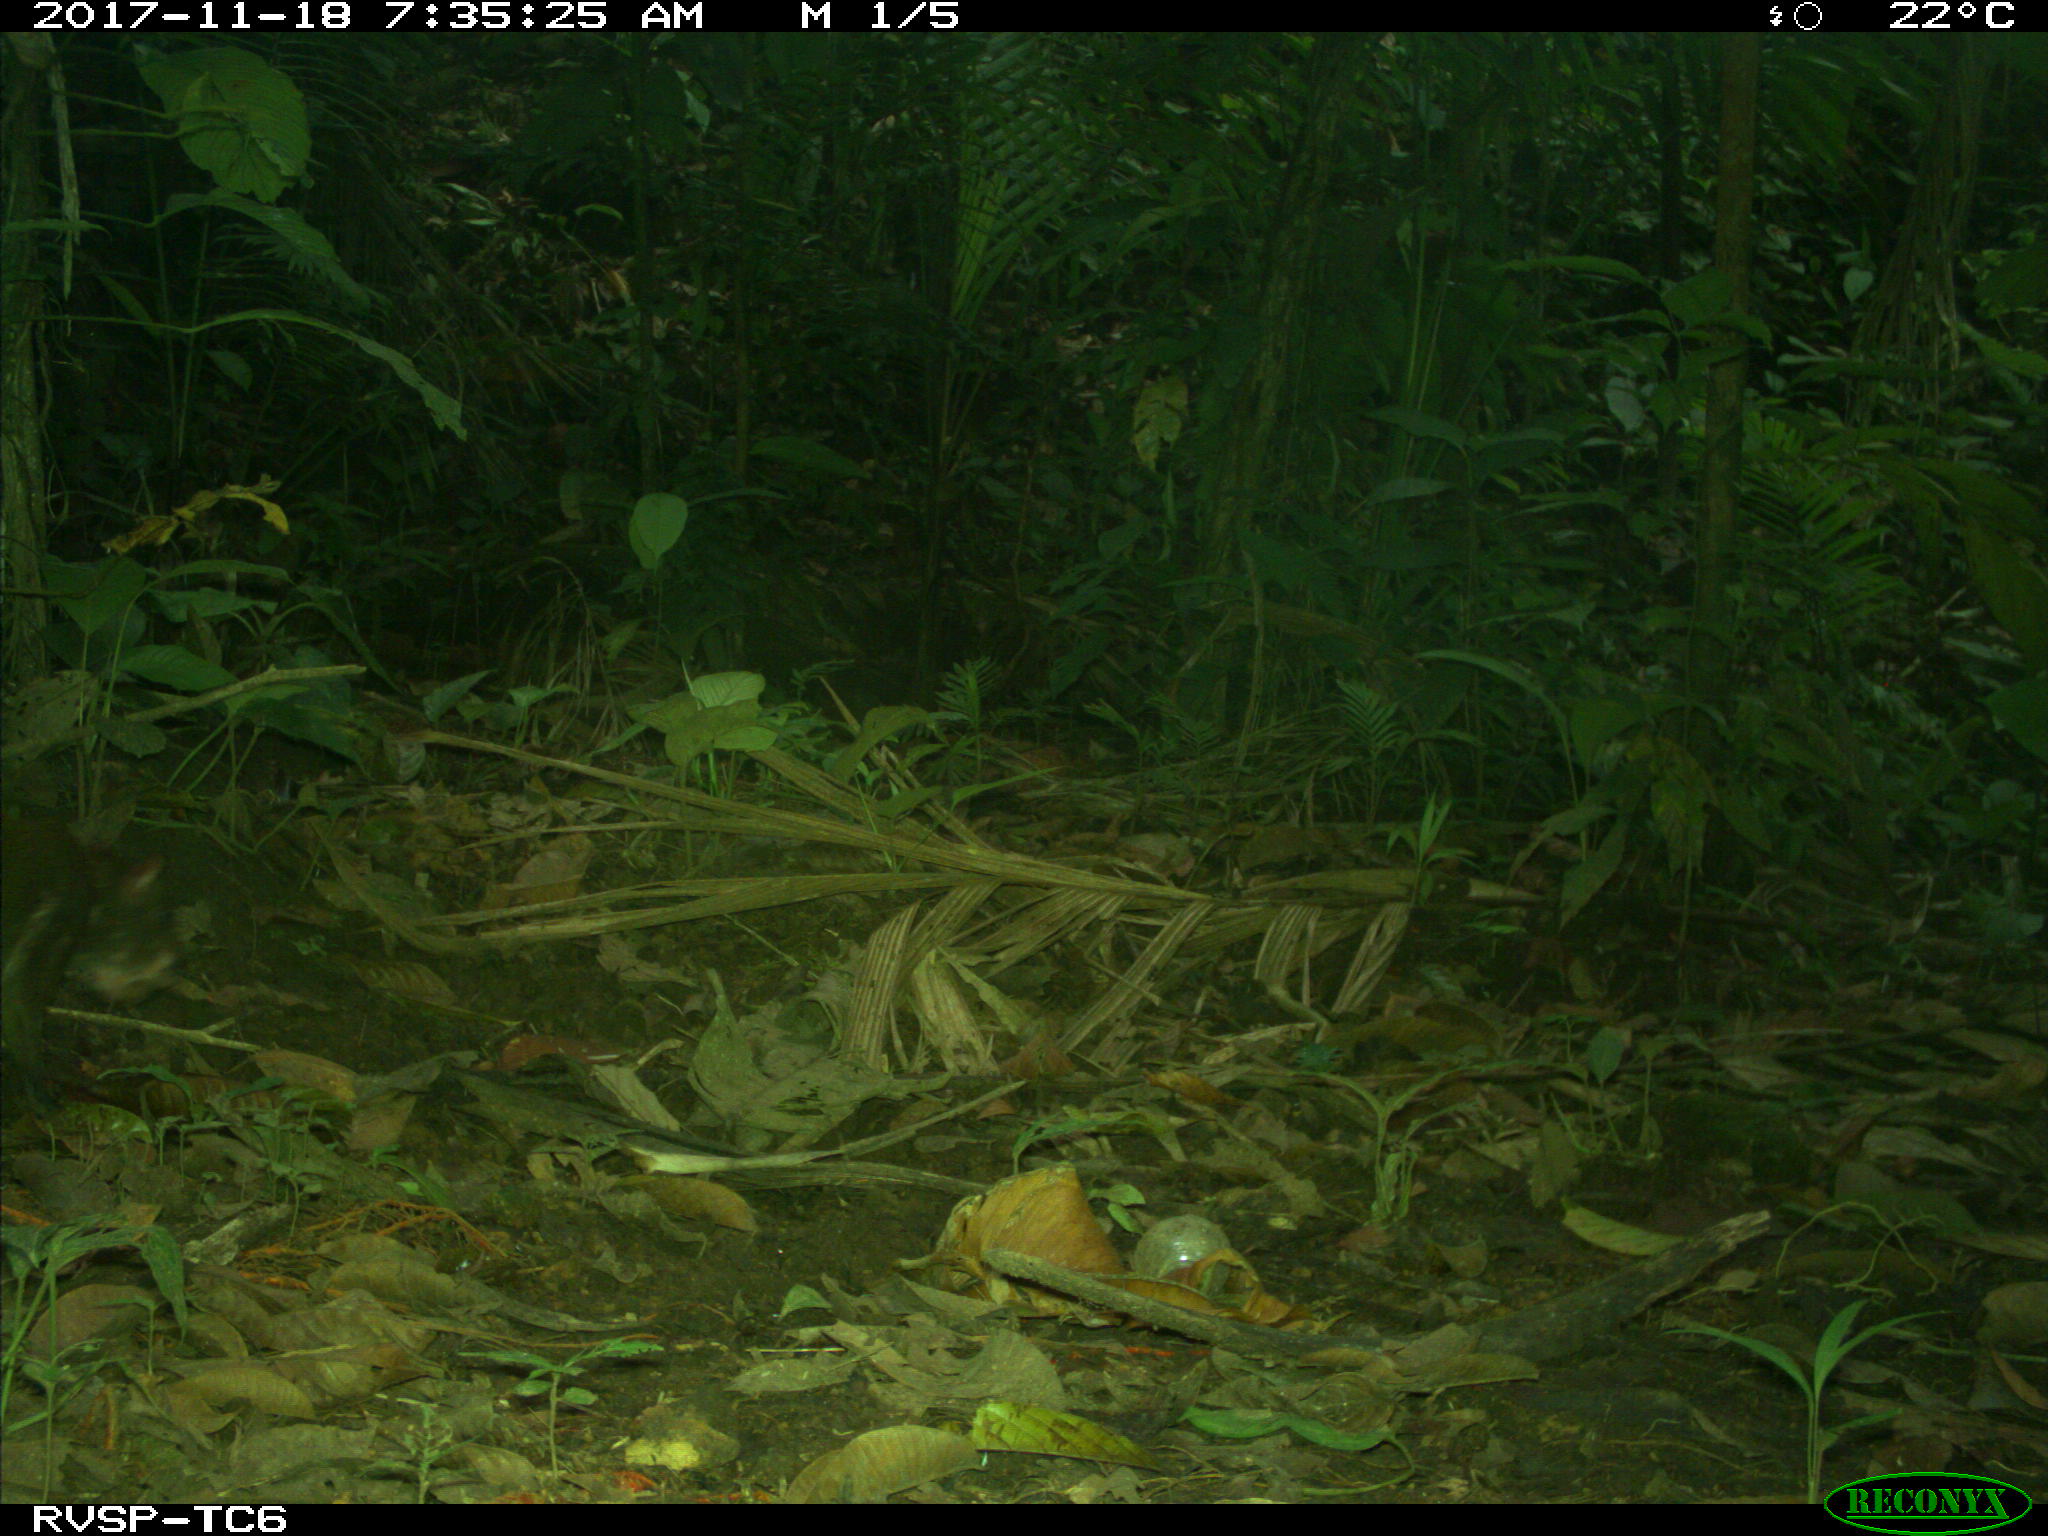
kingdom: Animalia
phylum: Chordata
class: Mammalia
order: Rodentia
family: Dasyproctidae
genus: Dasyprocta
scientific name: Dasyprocta punctata
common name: Central american agouti
